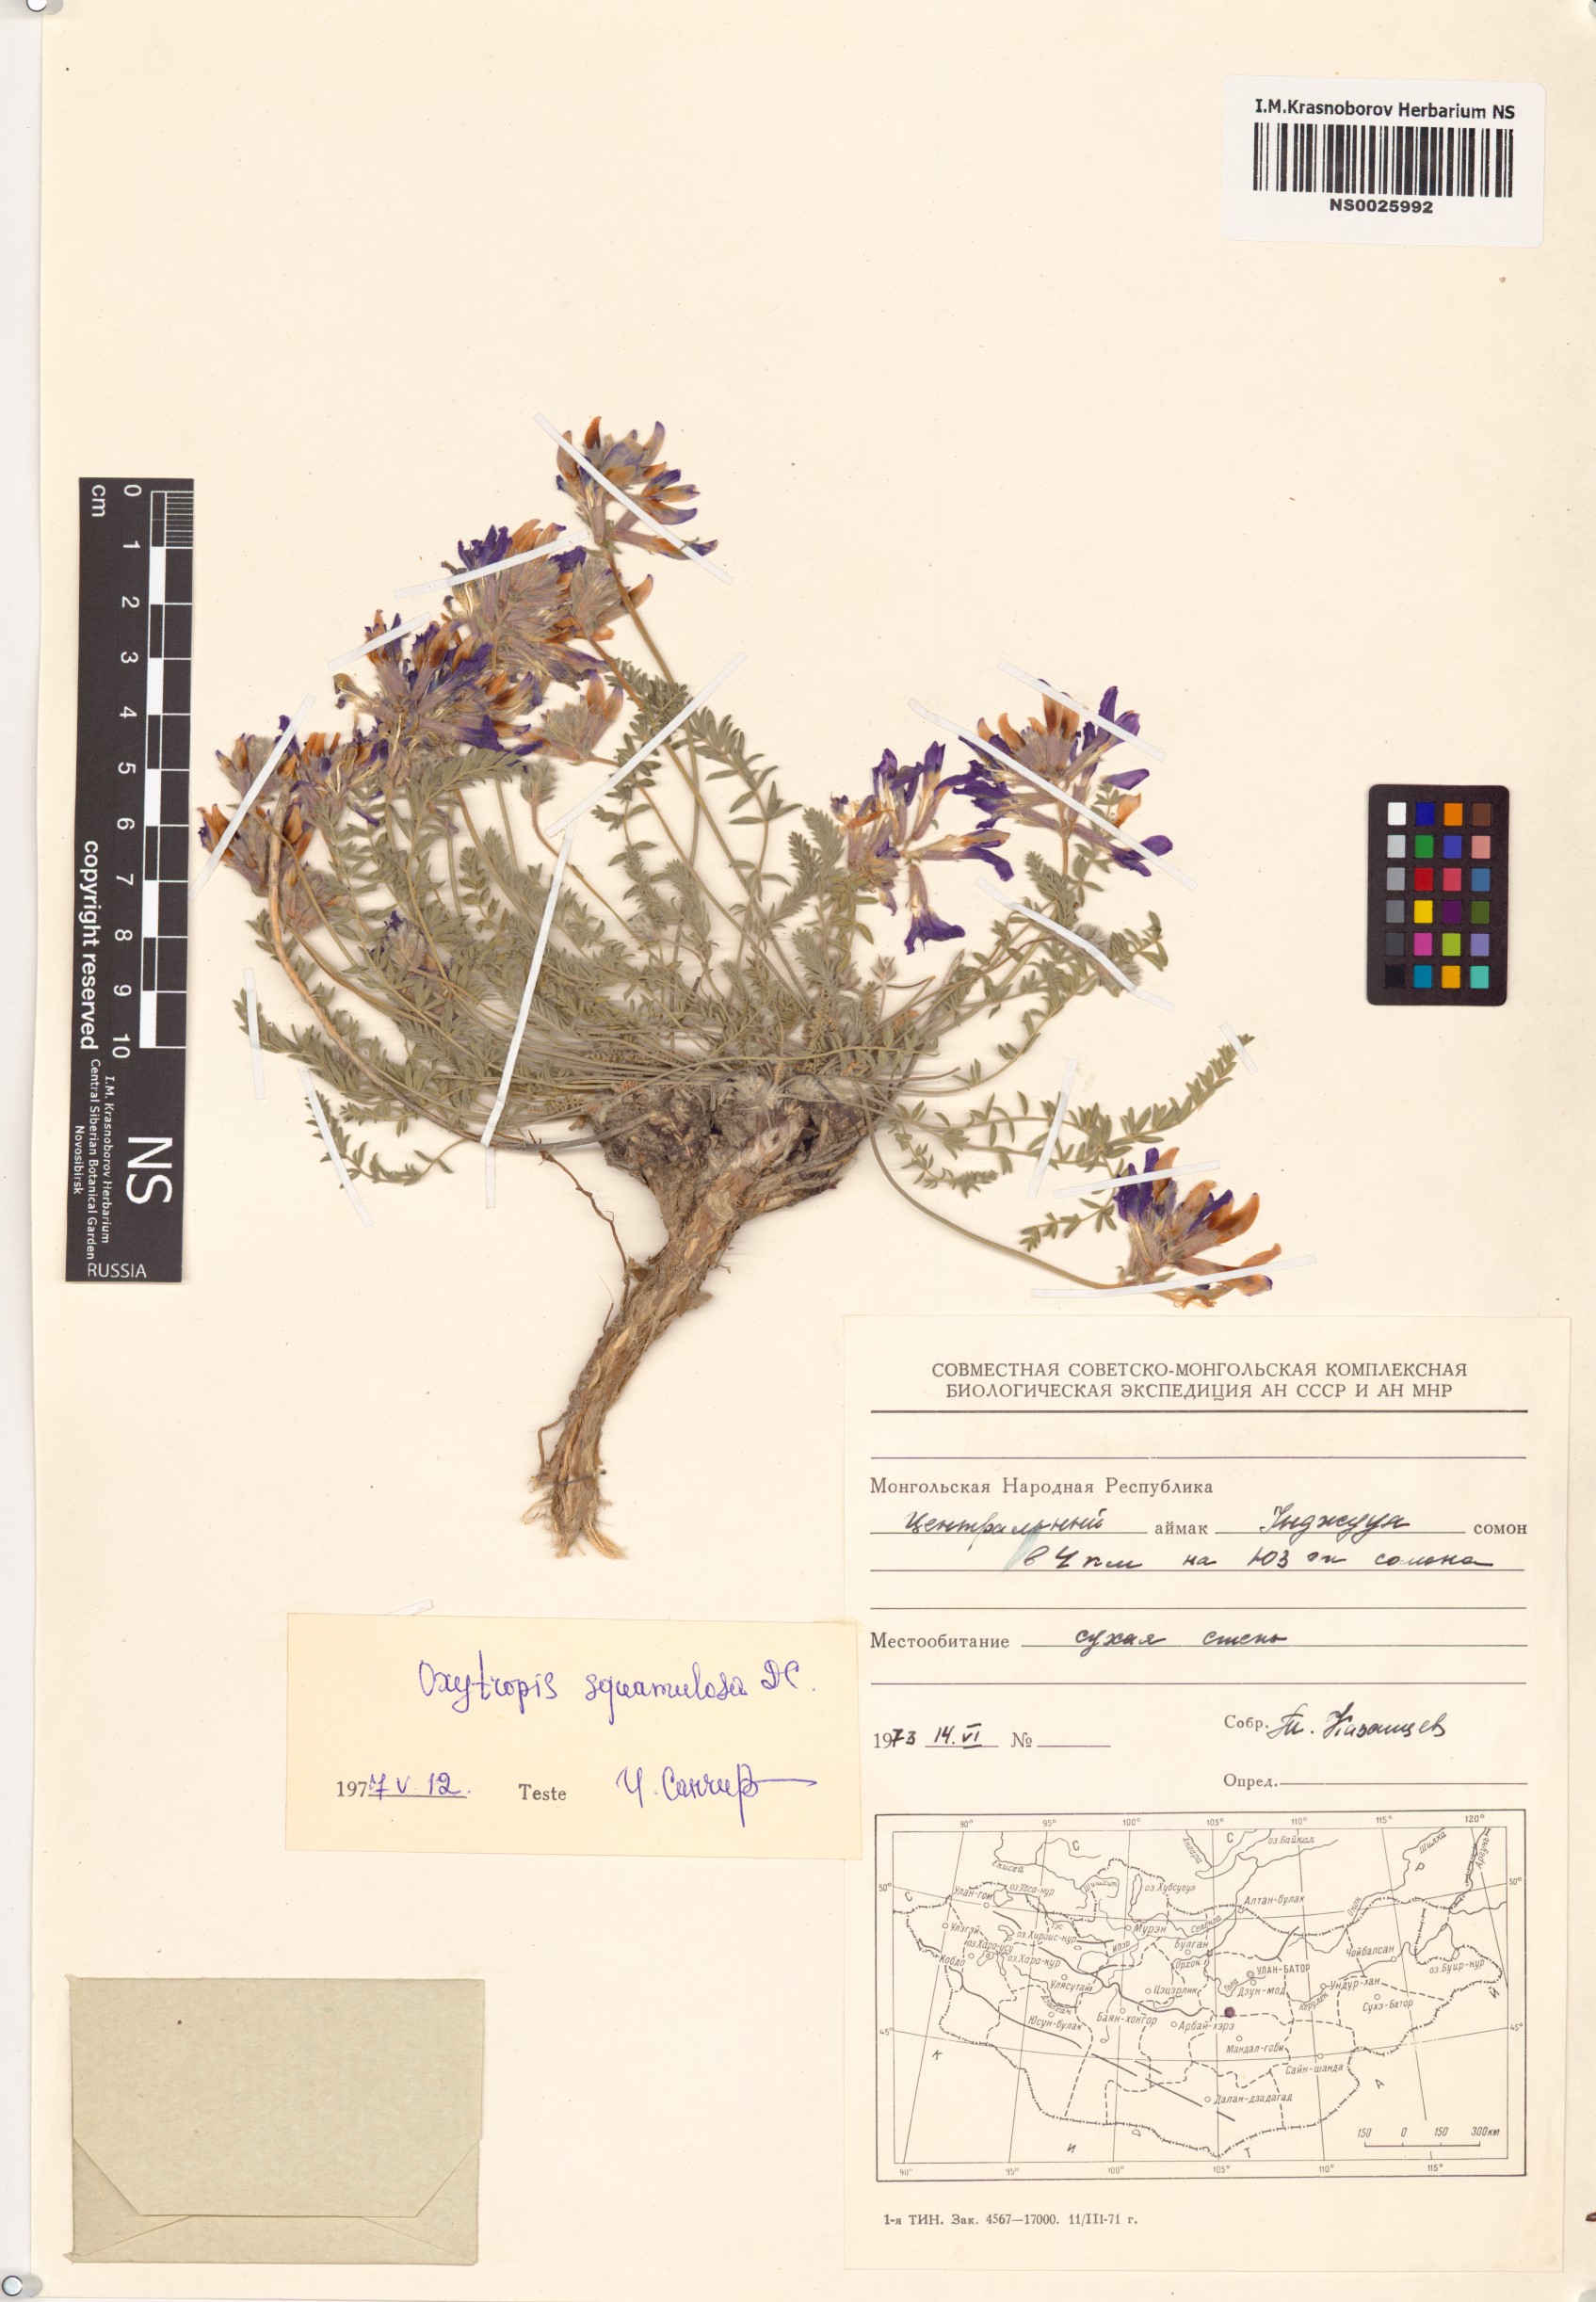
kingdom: Plantae
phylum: Tracheophyta
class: Magnoliopsida
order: Fabales
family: Fabaceae
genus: Oxytropis
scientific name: Oxytropis squammulosa
